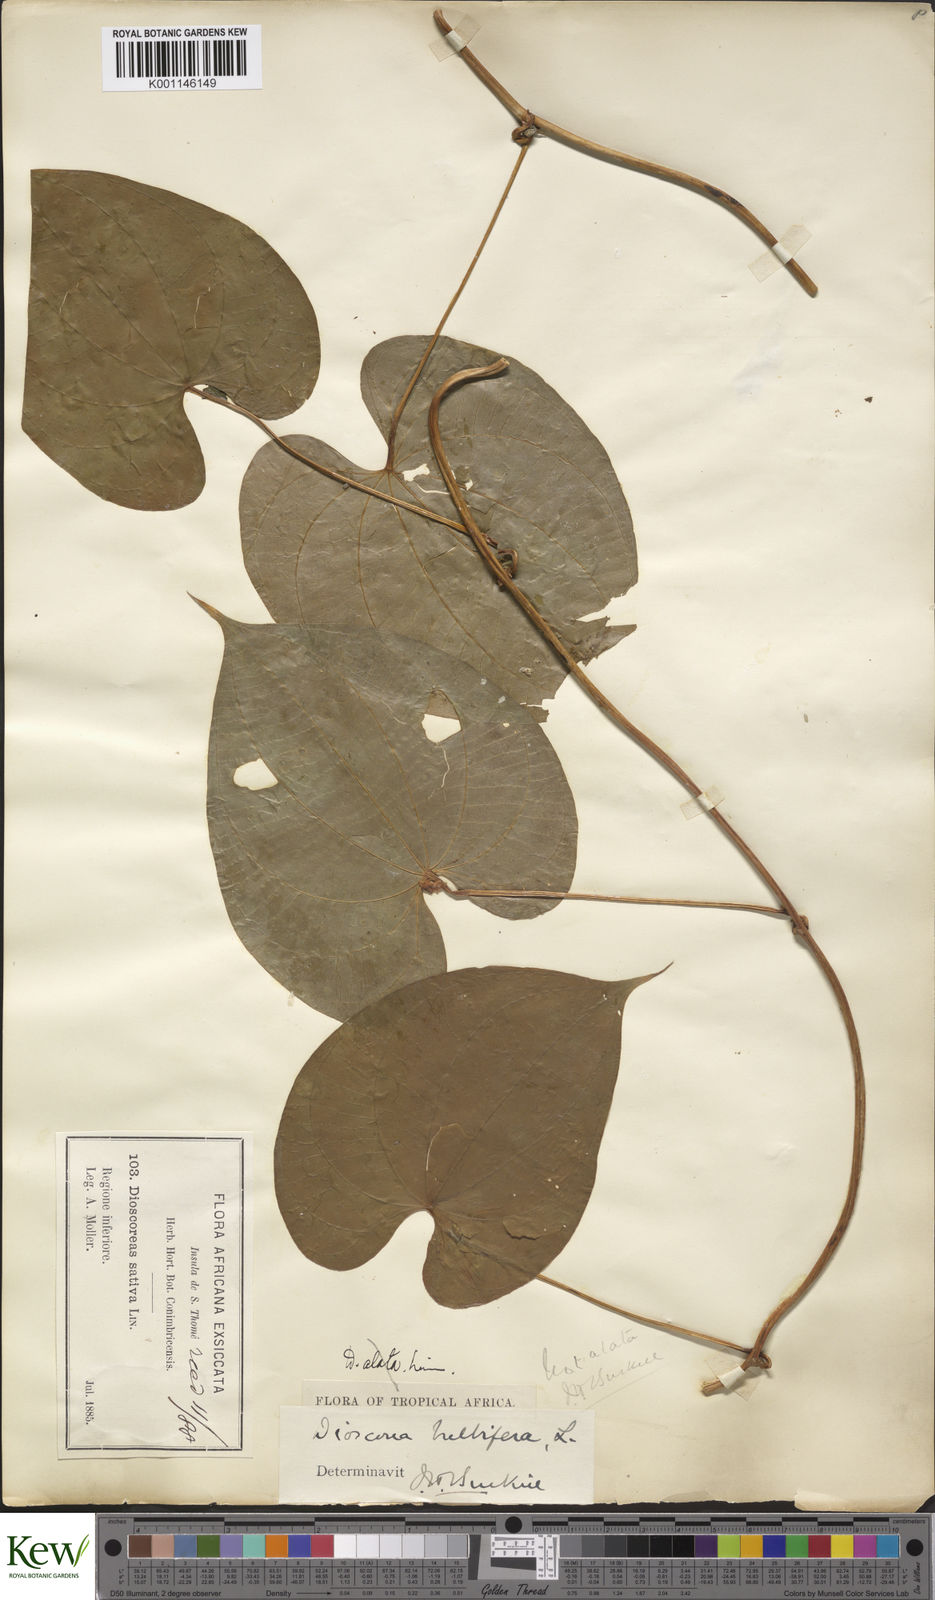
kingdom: Plantae
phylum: Tracheophyta
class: Liliopsida
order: Dioscoreales
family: Dioscoreaceae
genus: Dioscorea
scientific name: Dioscorea bulbifera
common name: Air yam
